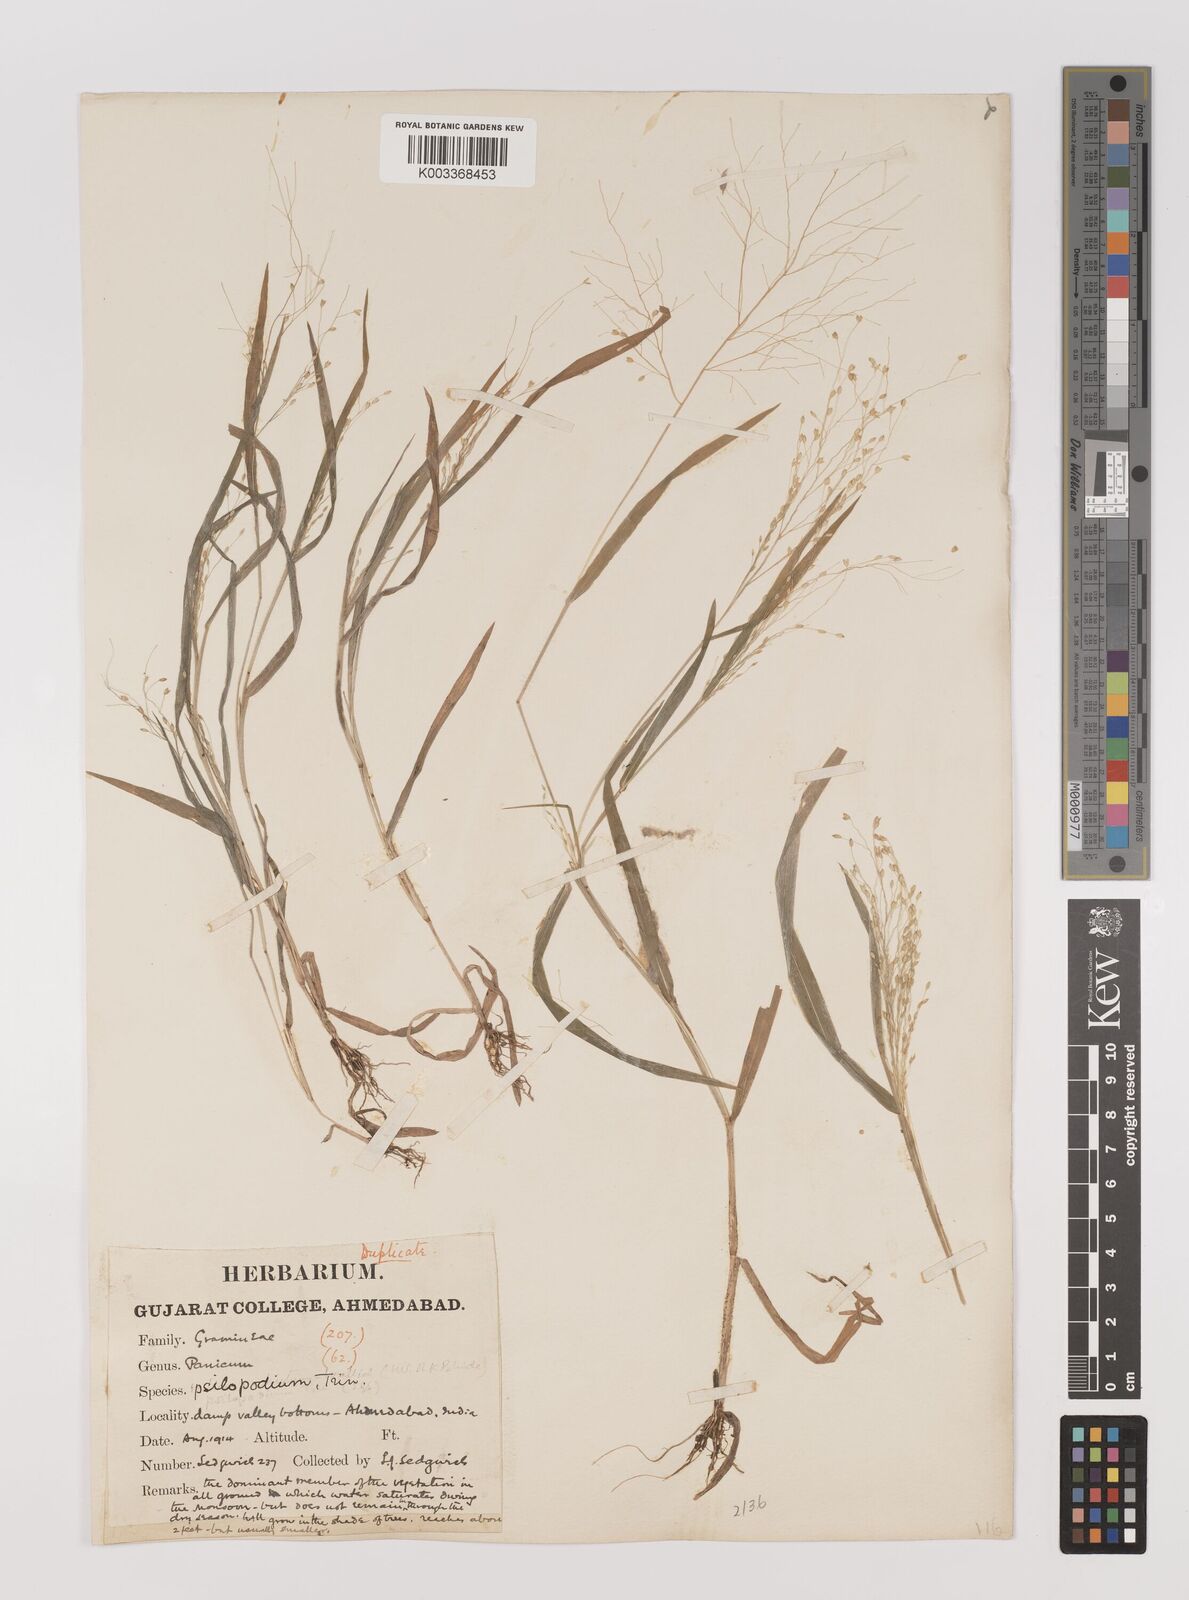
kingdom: Plantae
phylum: Tracheophyta
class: Liliopsida
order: Poales
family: Poaceae
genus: Panicum
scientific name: Panicum sumatrense
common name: Little millet
